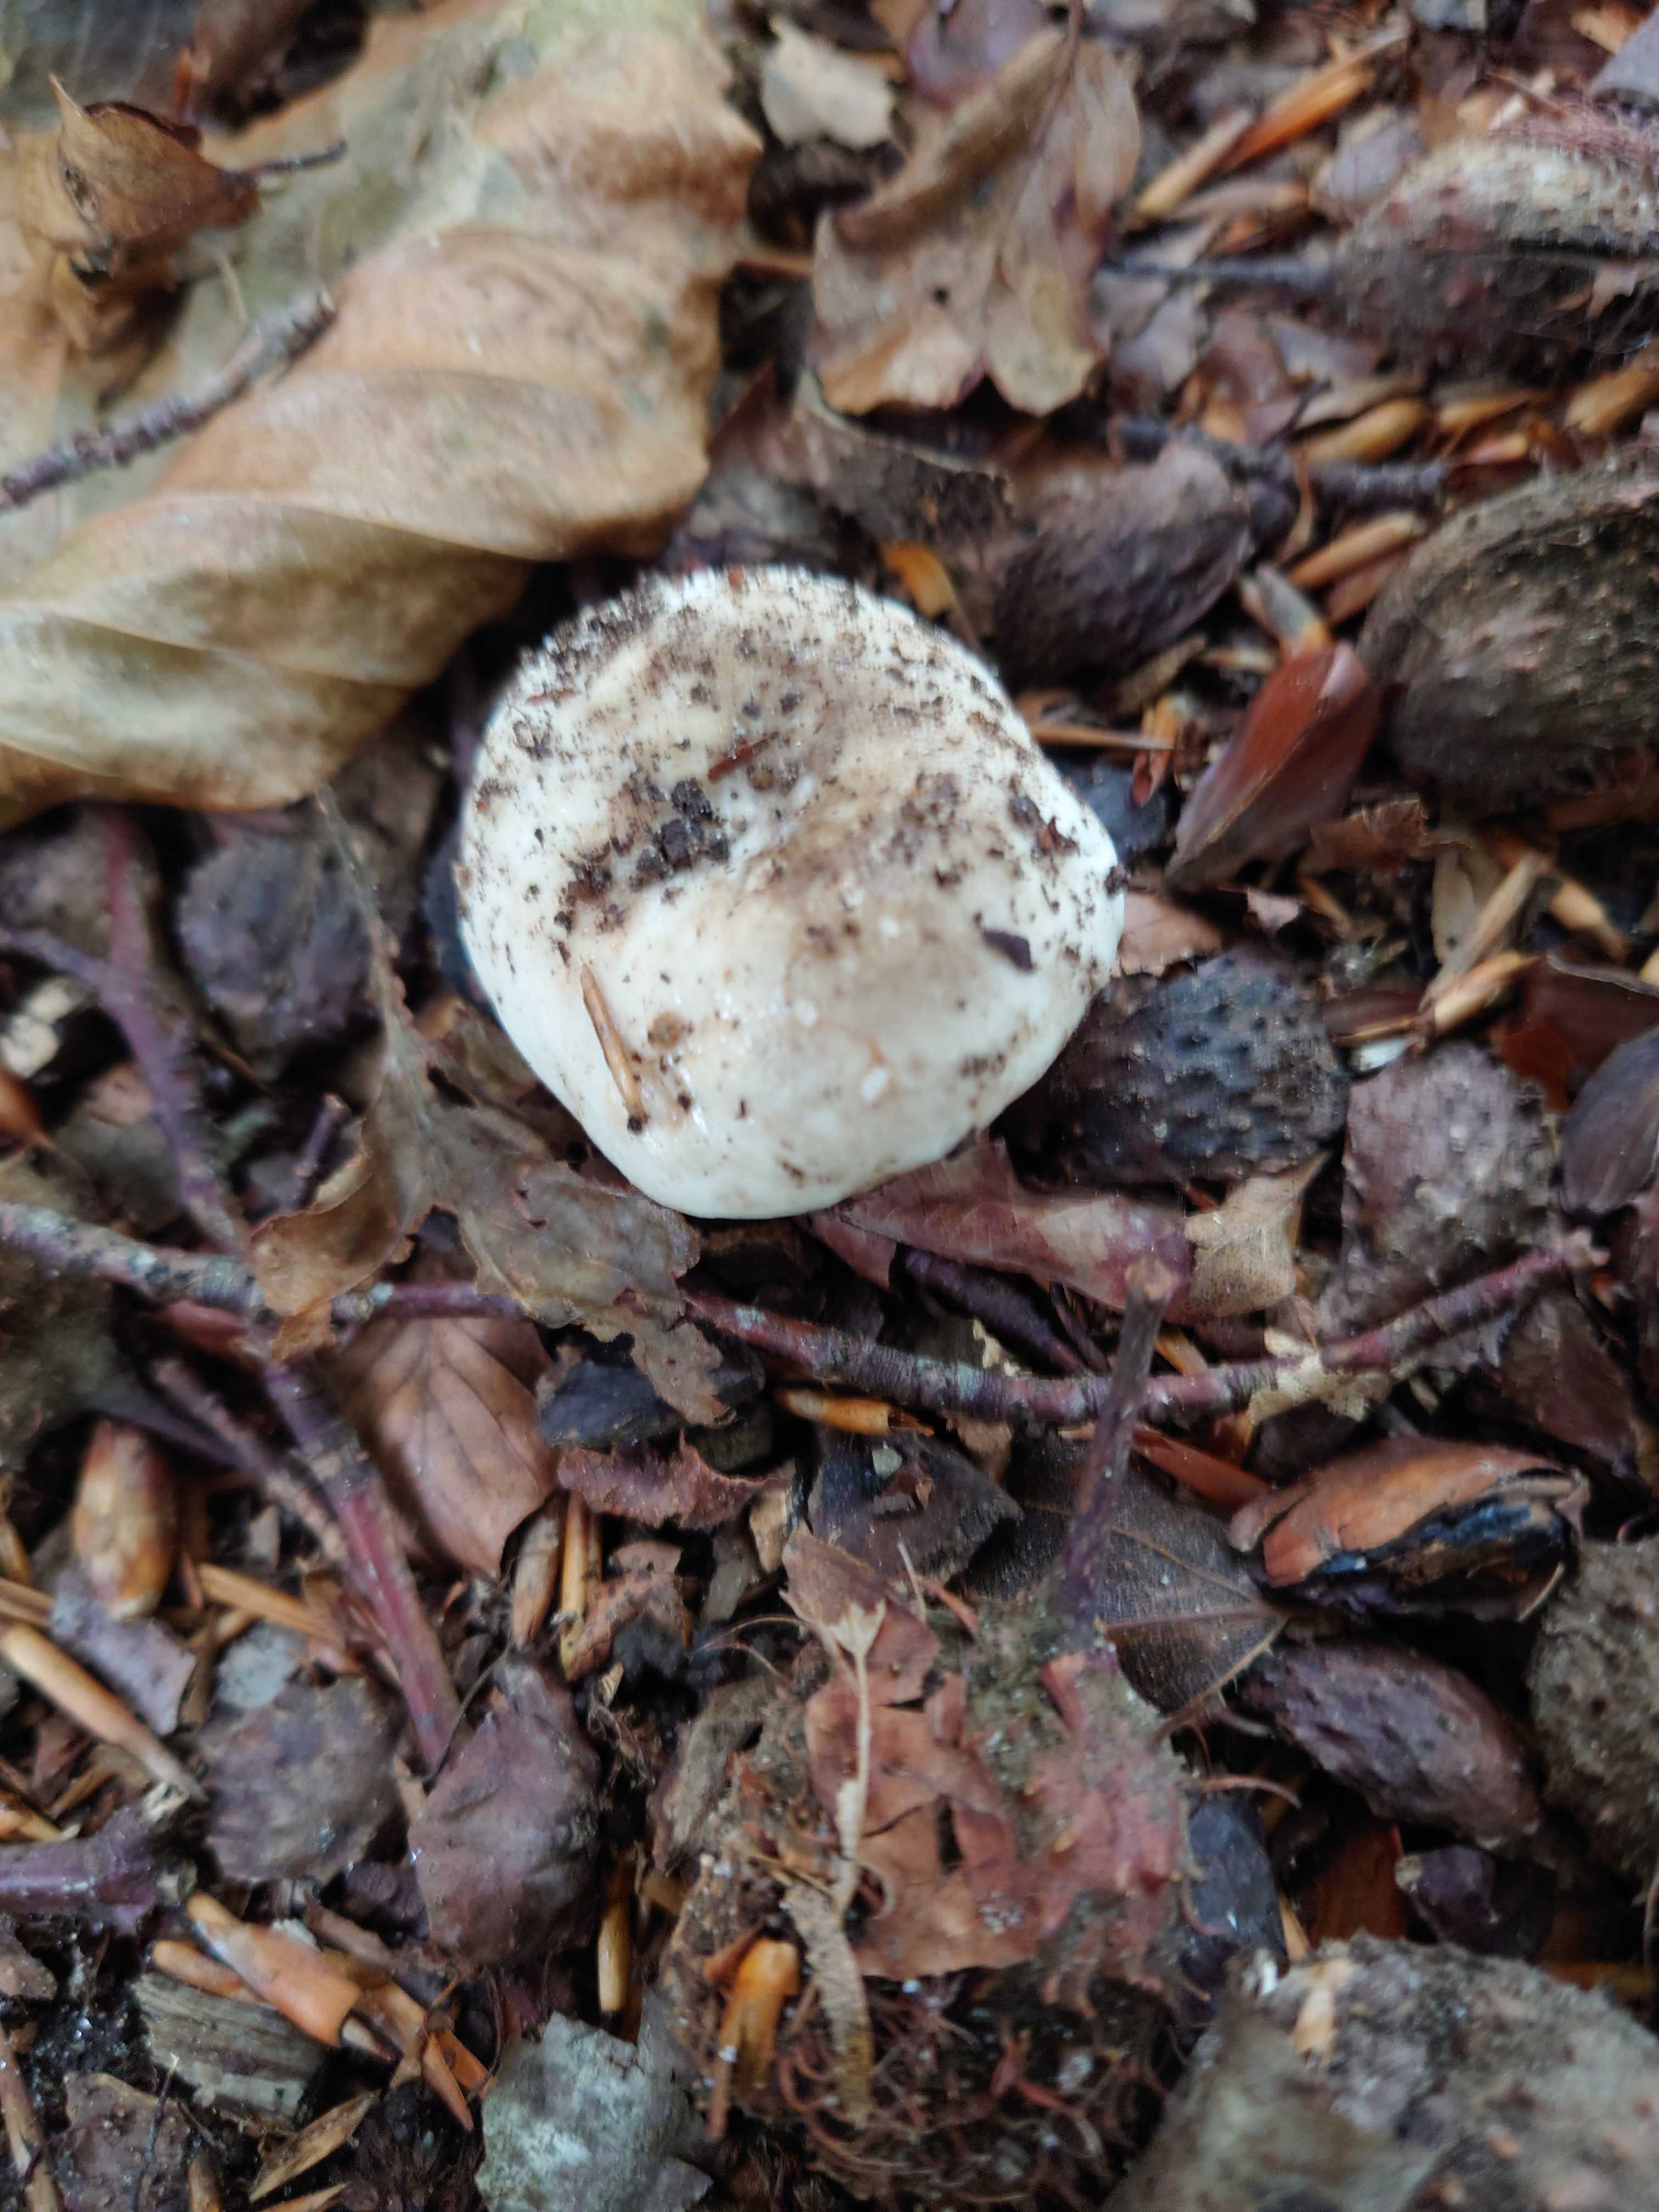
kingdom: Fungi
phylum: Basidiomycota
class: Agaricomycetes
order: Russulales
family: Russulaceae
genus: Russula
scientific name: Russula adusta
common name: sværtende skørhat
